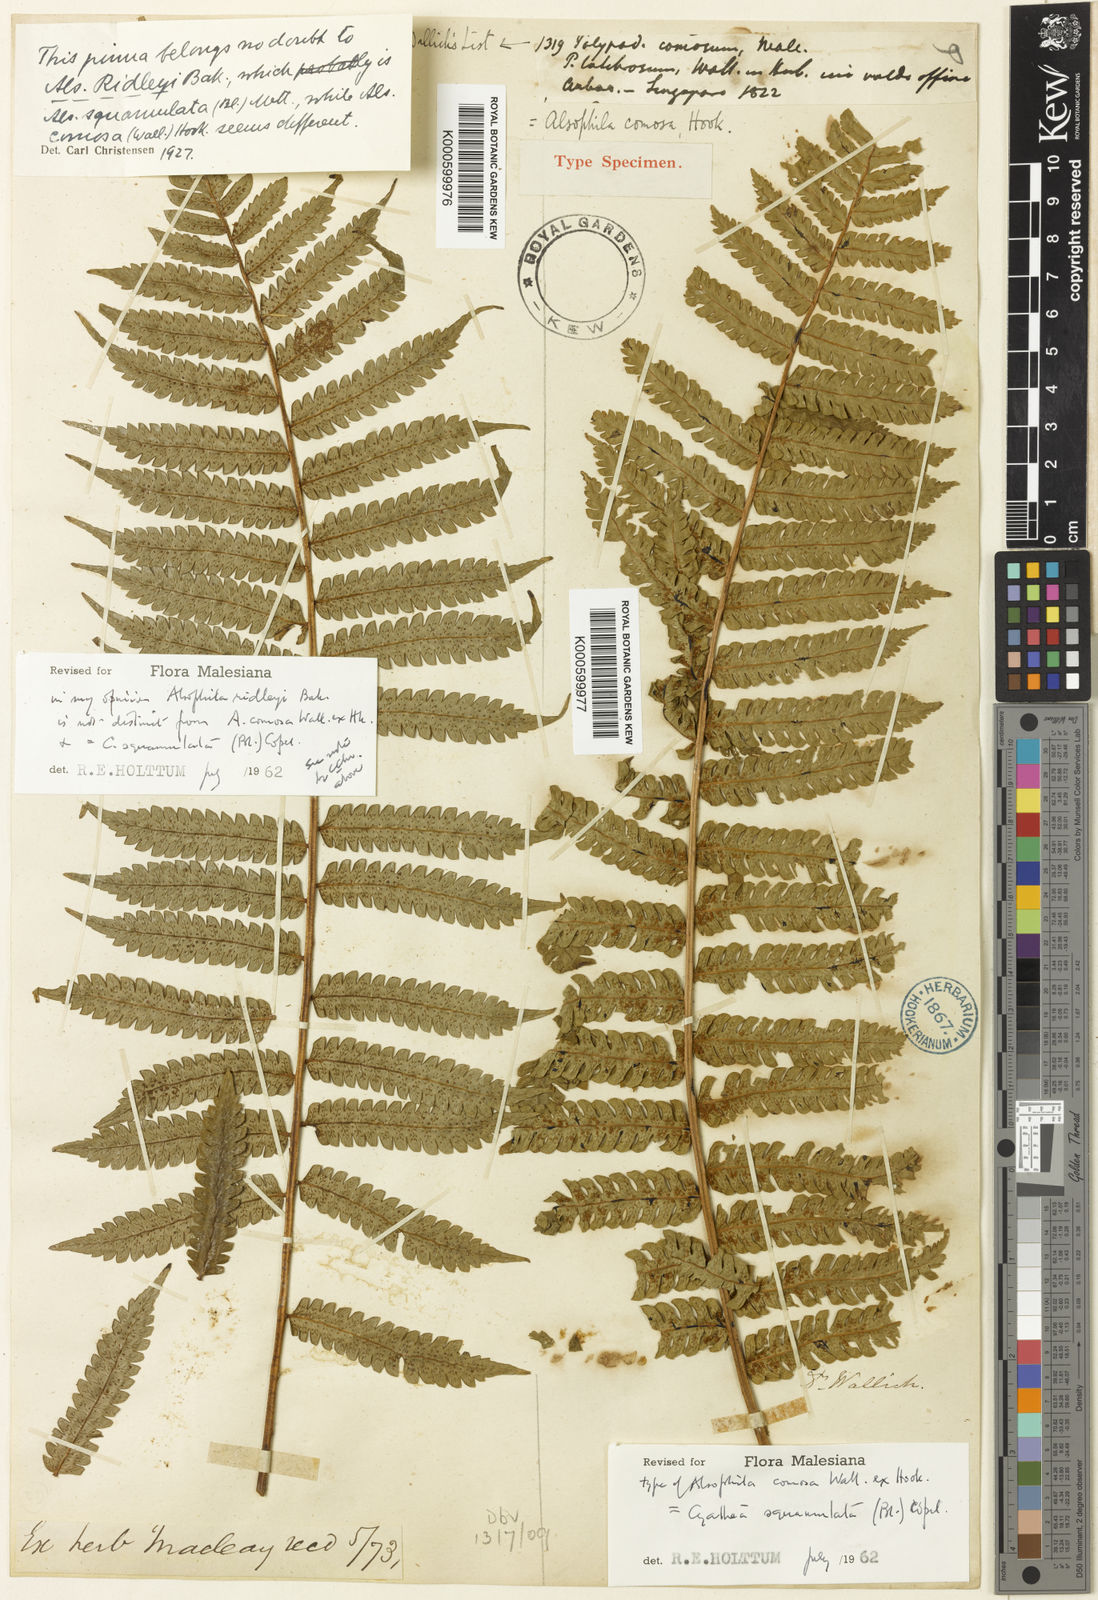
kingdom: Plantae
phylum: Tracheophyta
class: Polypodiopsida
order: Cyatheales
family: Cyatheaceae
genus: Sphaeropteris
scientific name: Sphaeropteris squamulata
